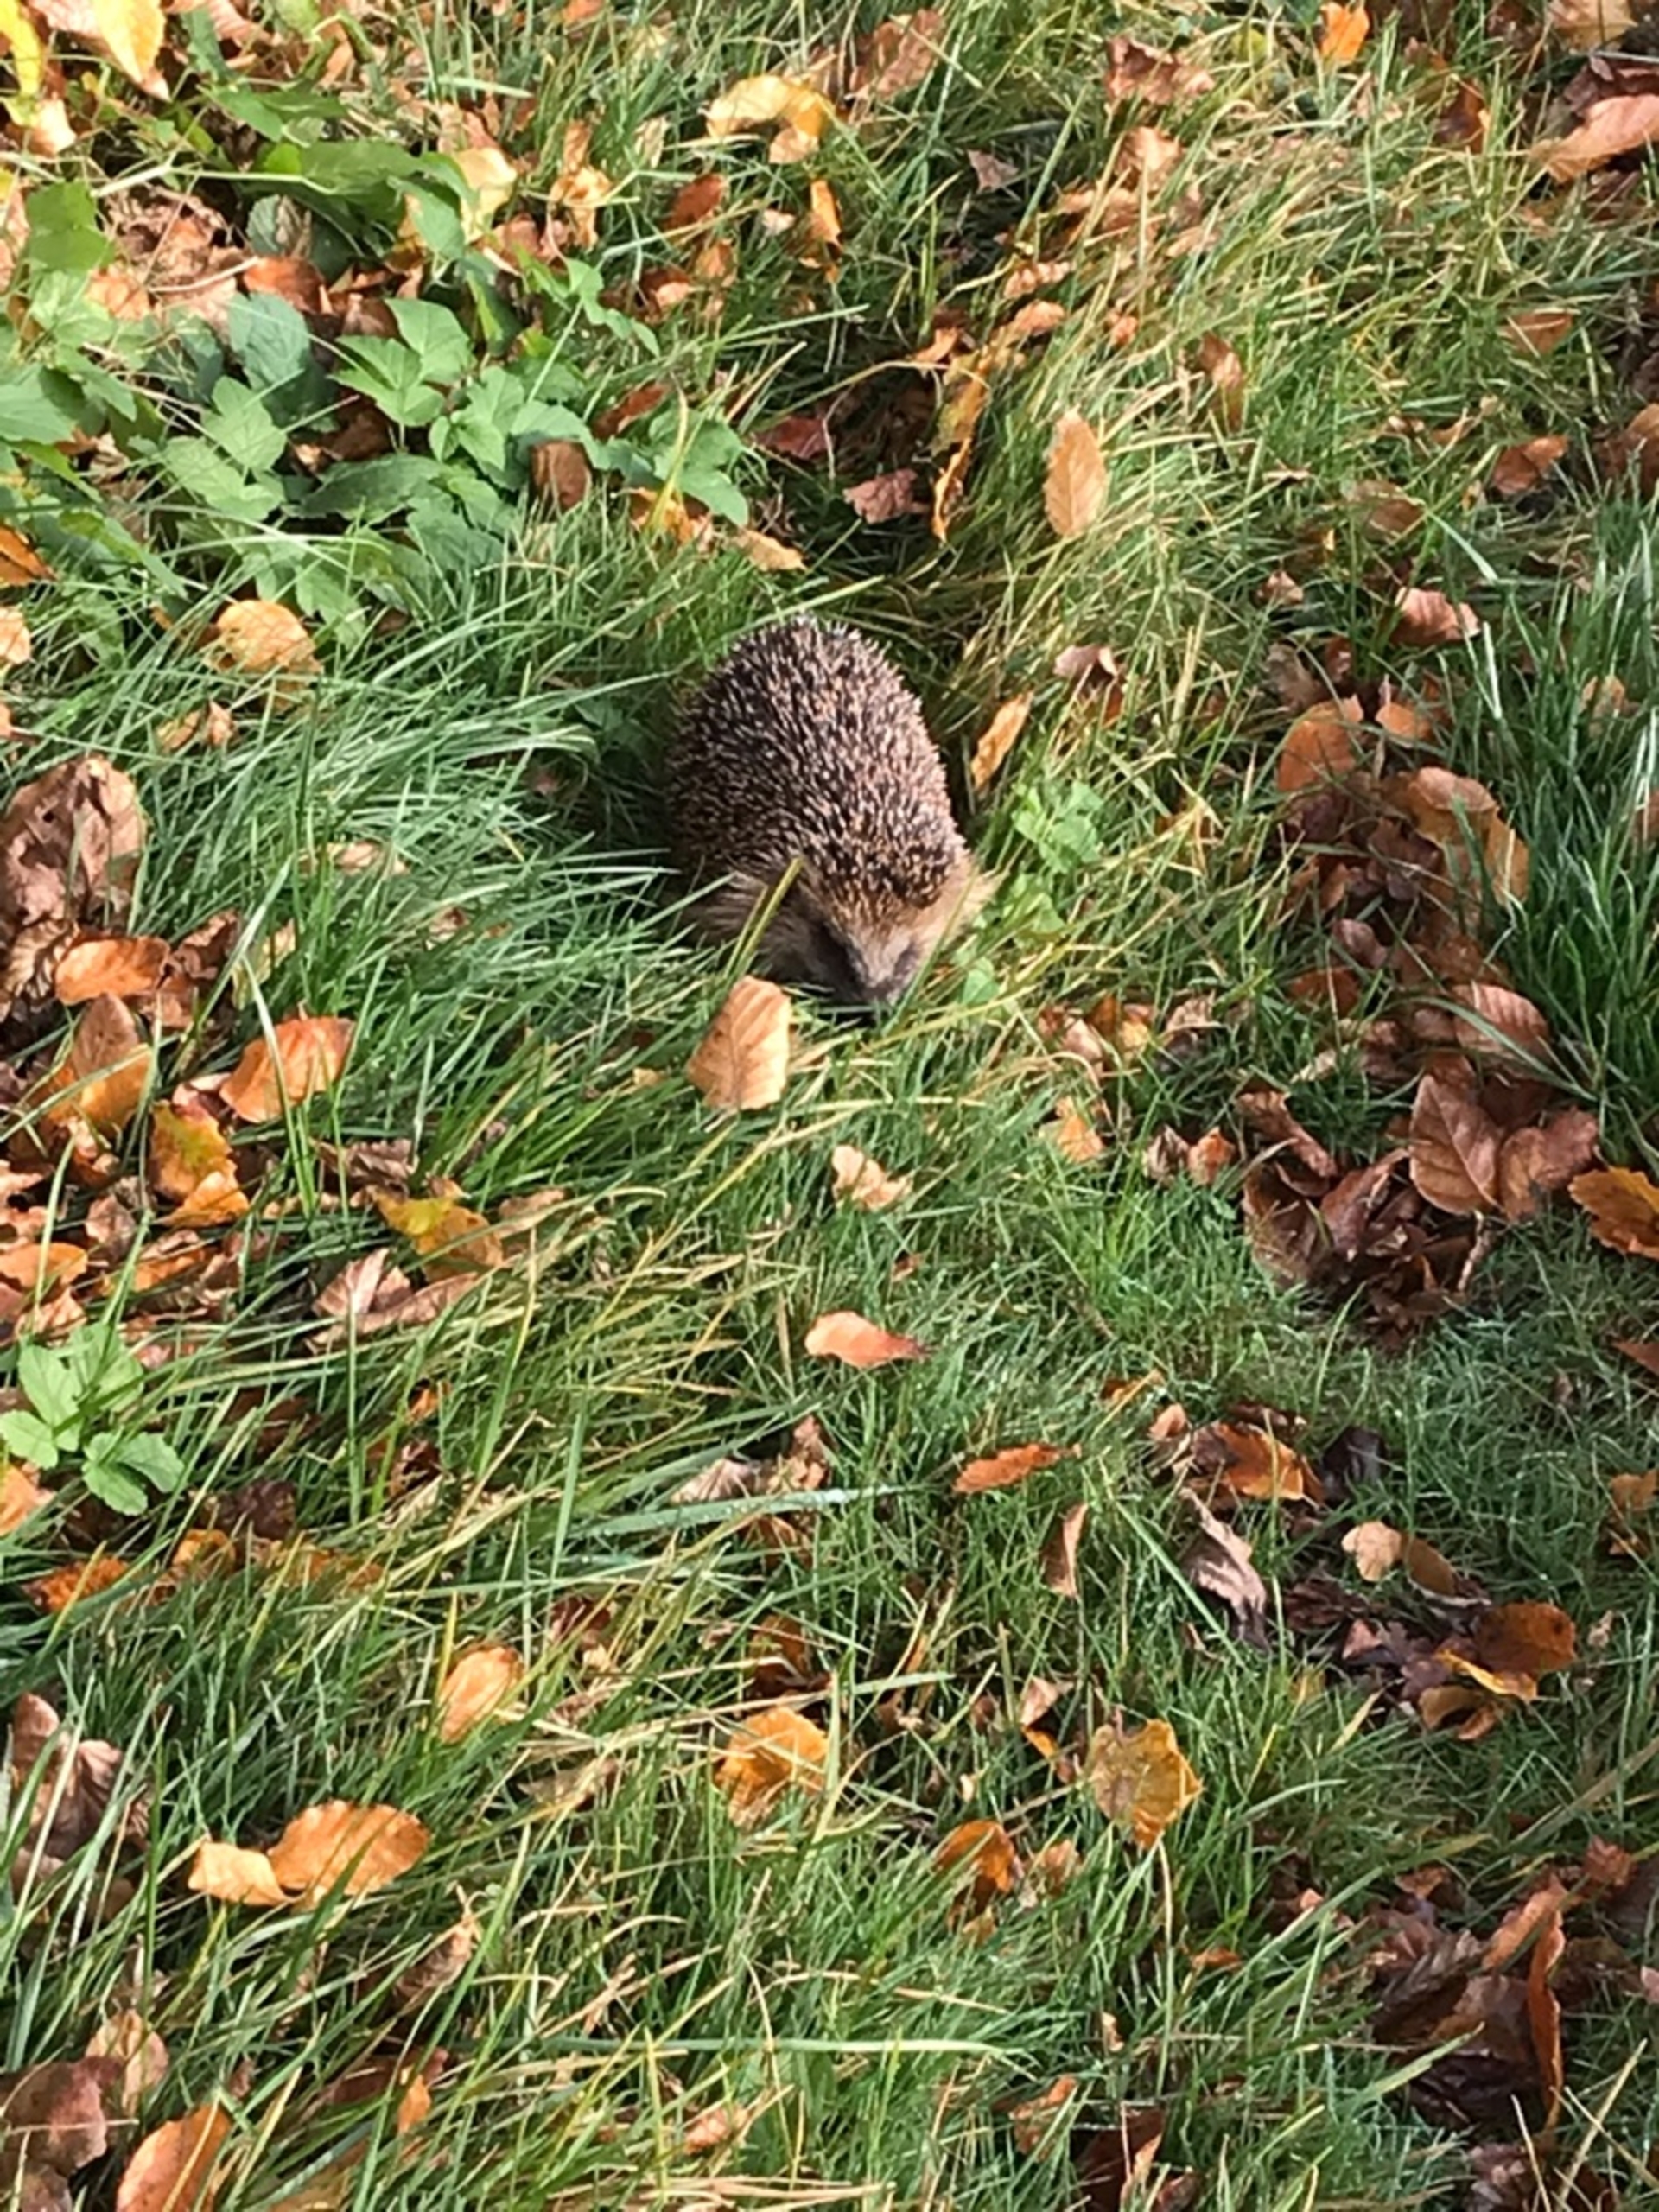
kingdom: Animalia
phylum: Chordata
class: Mammalia
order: Erinaceomorpha
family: Erinaceidae
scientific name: Erinaceidae
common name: Pindsvin
